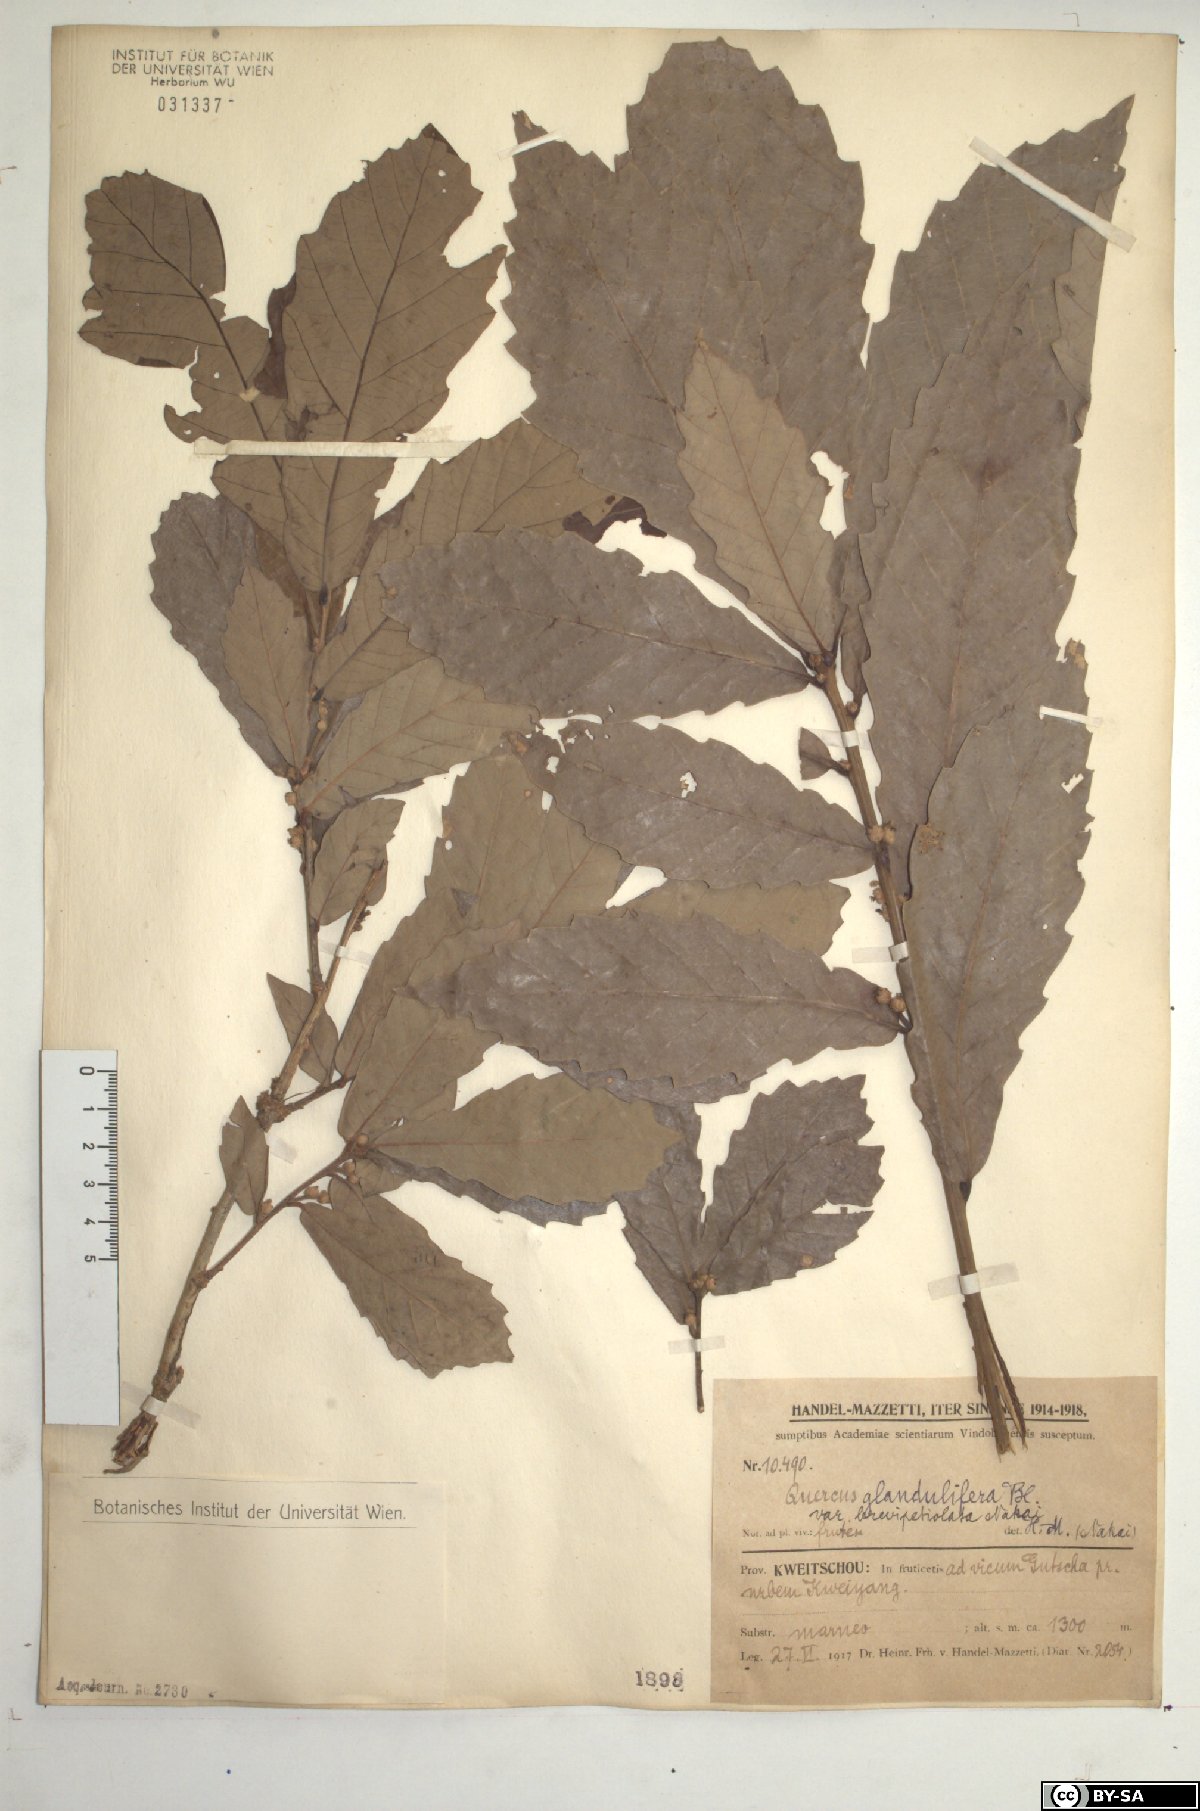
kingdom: Plantae
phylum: Tracheophyta
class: Magnoliopsida
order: Fagales
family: Fagaceae
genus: Quercus
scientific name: Quercus serrata
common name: Bao li
